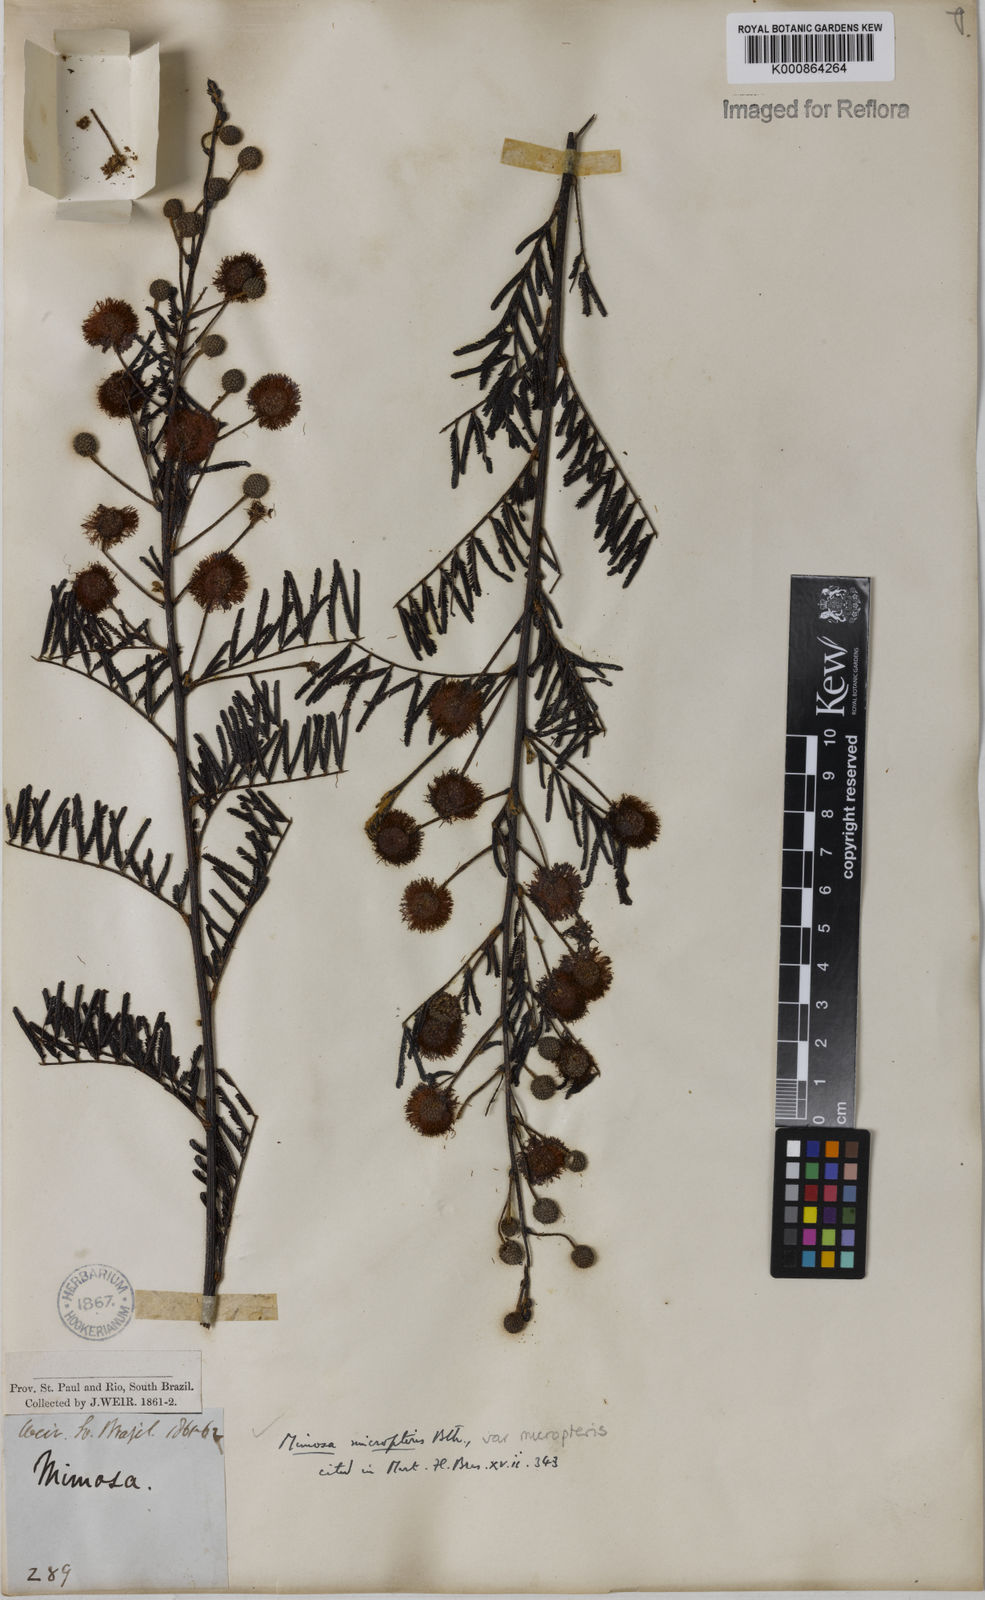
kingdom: Plantae
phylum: Tracheophyta
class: Magnoliopsida
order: Fabales
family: Fabaceae
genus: Mimosa
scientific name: Mimosa micropteris
